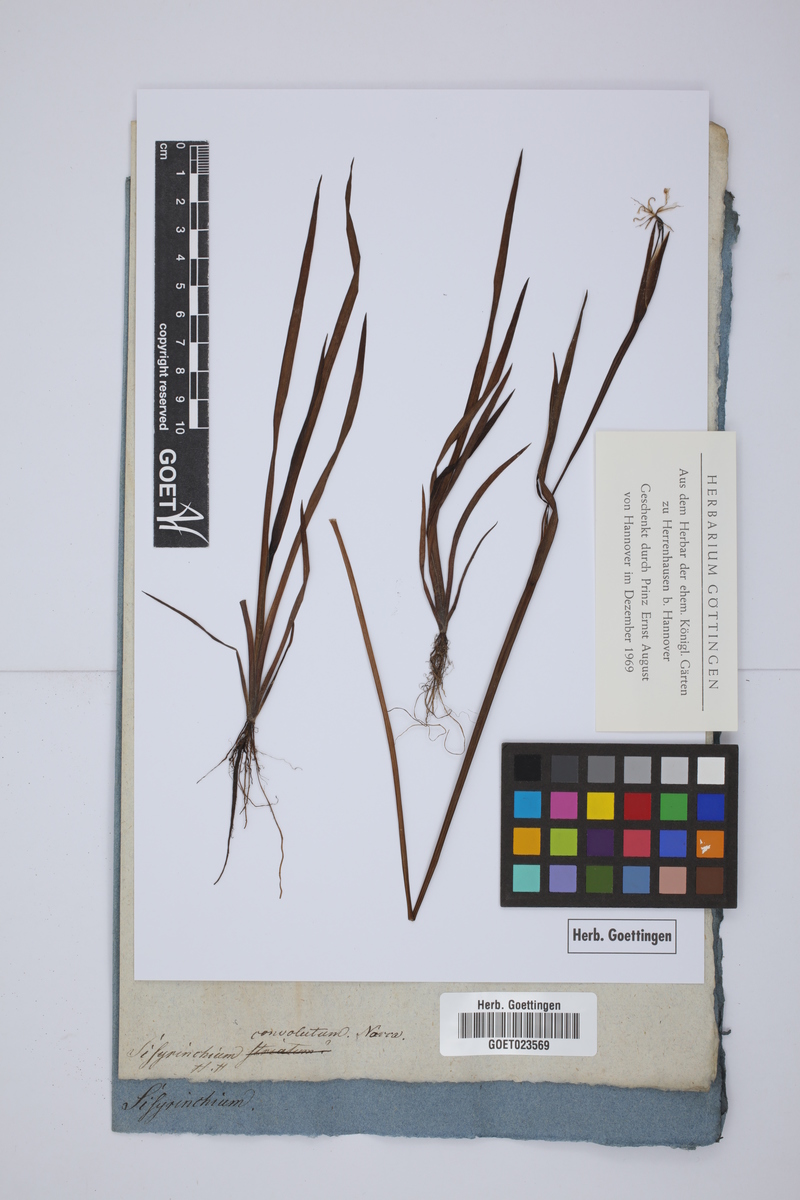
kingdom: Plantae
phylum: Tracheophyta
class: Liliopsida
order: Asparagales
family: Iridaceae
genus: Sisyrinchium
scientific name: Sisyrinchium convolutum
